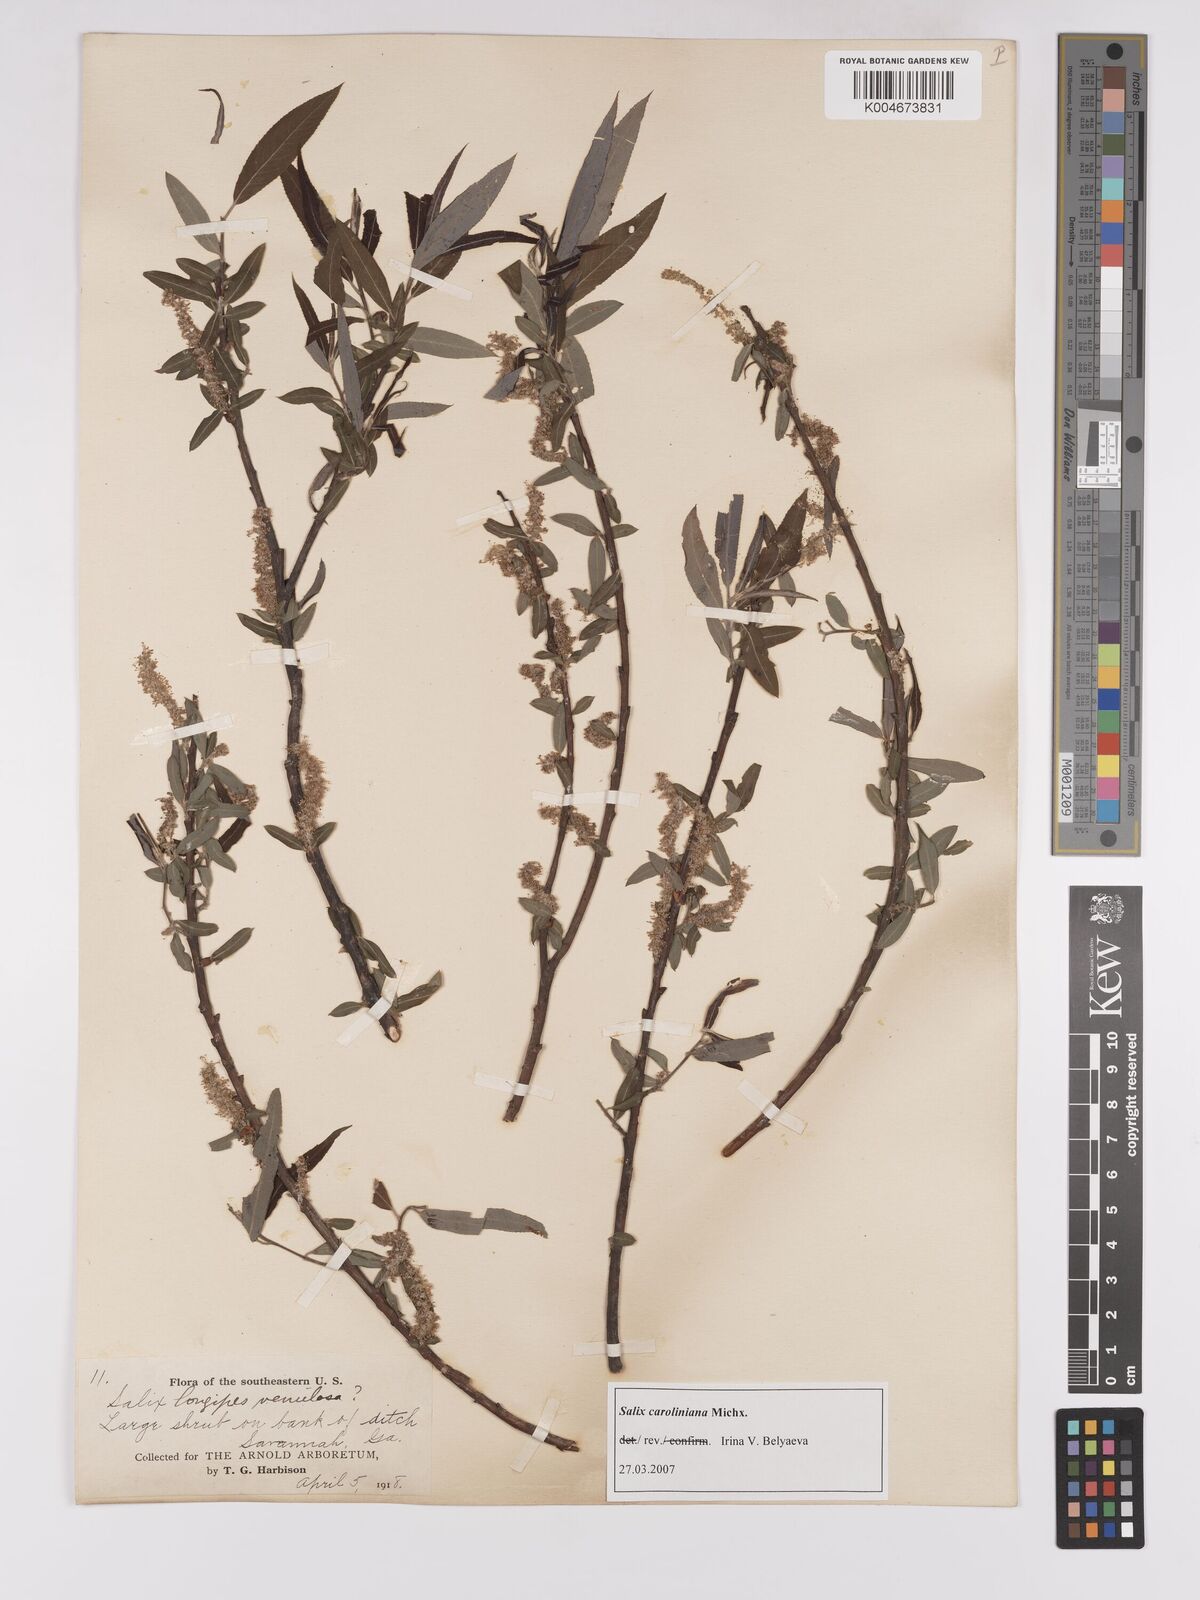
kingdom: Plantae
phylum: Tracheophyta
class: Magnoliopsida
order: Malpighiales
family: Salicaceae
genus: Salix
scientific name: Salix caroliniana
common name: Carolina willow
